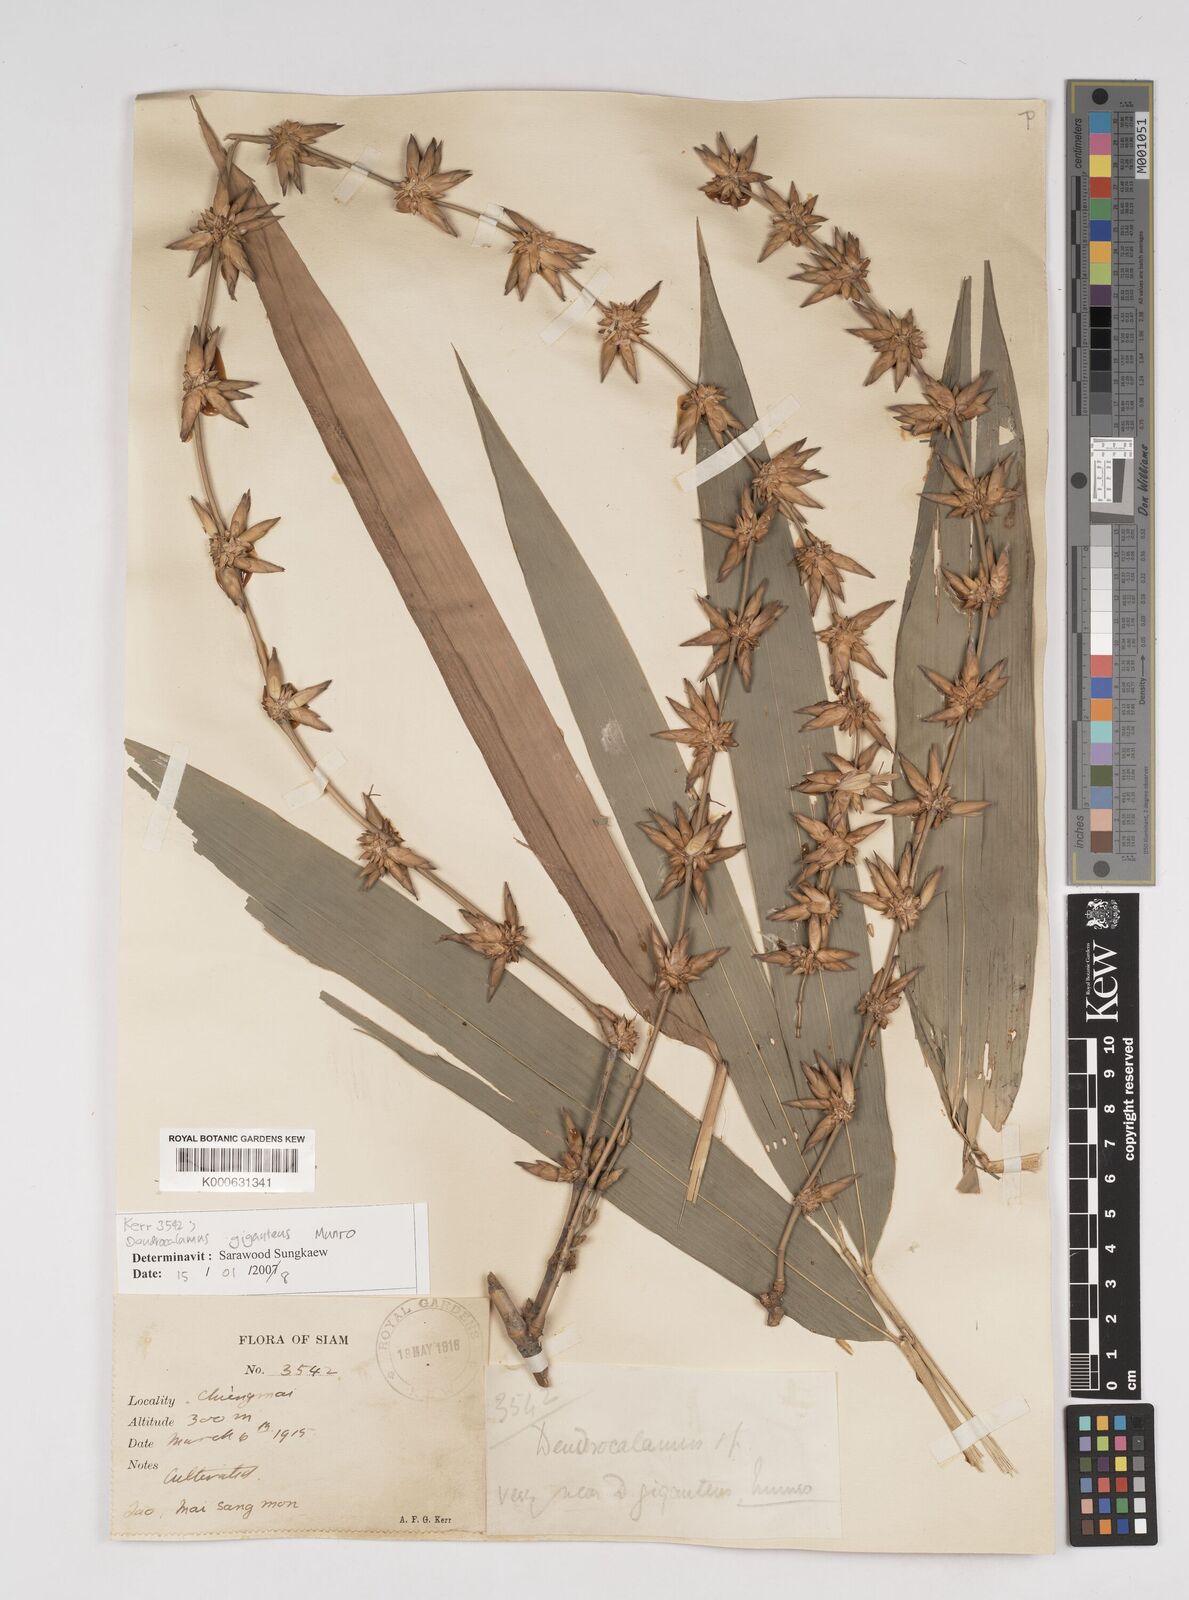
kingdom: Plantae
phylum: Tracheophyta
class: Liliopsida
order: Poales
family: Poaceae
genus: Dendrocalamus
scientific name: Dendrocalamus giganteus
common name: Giant bamboo
